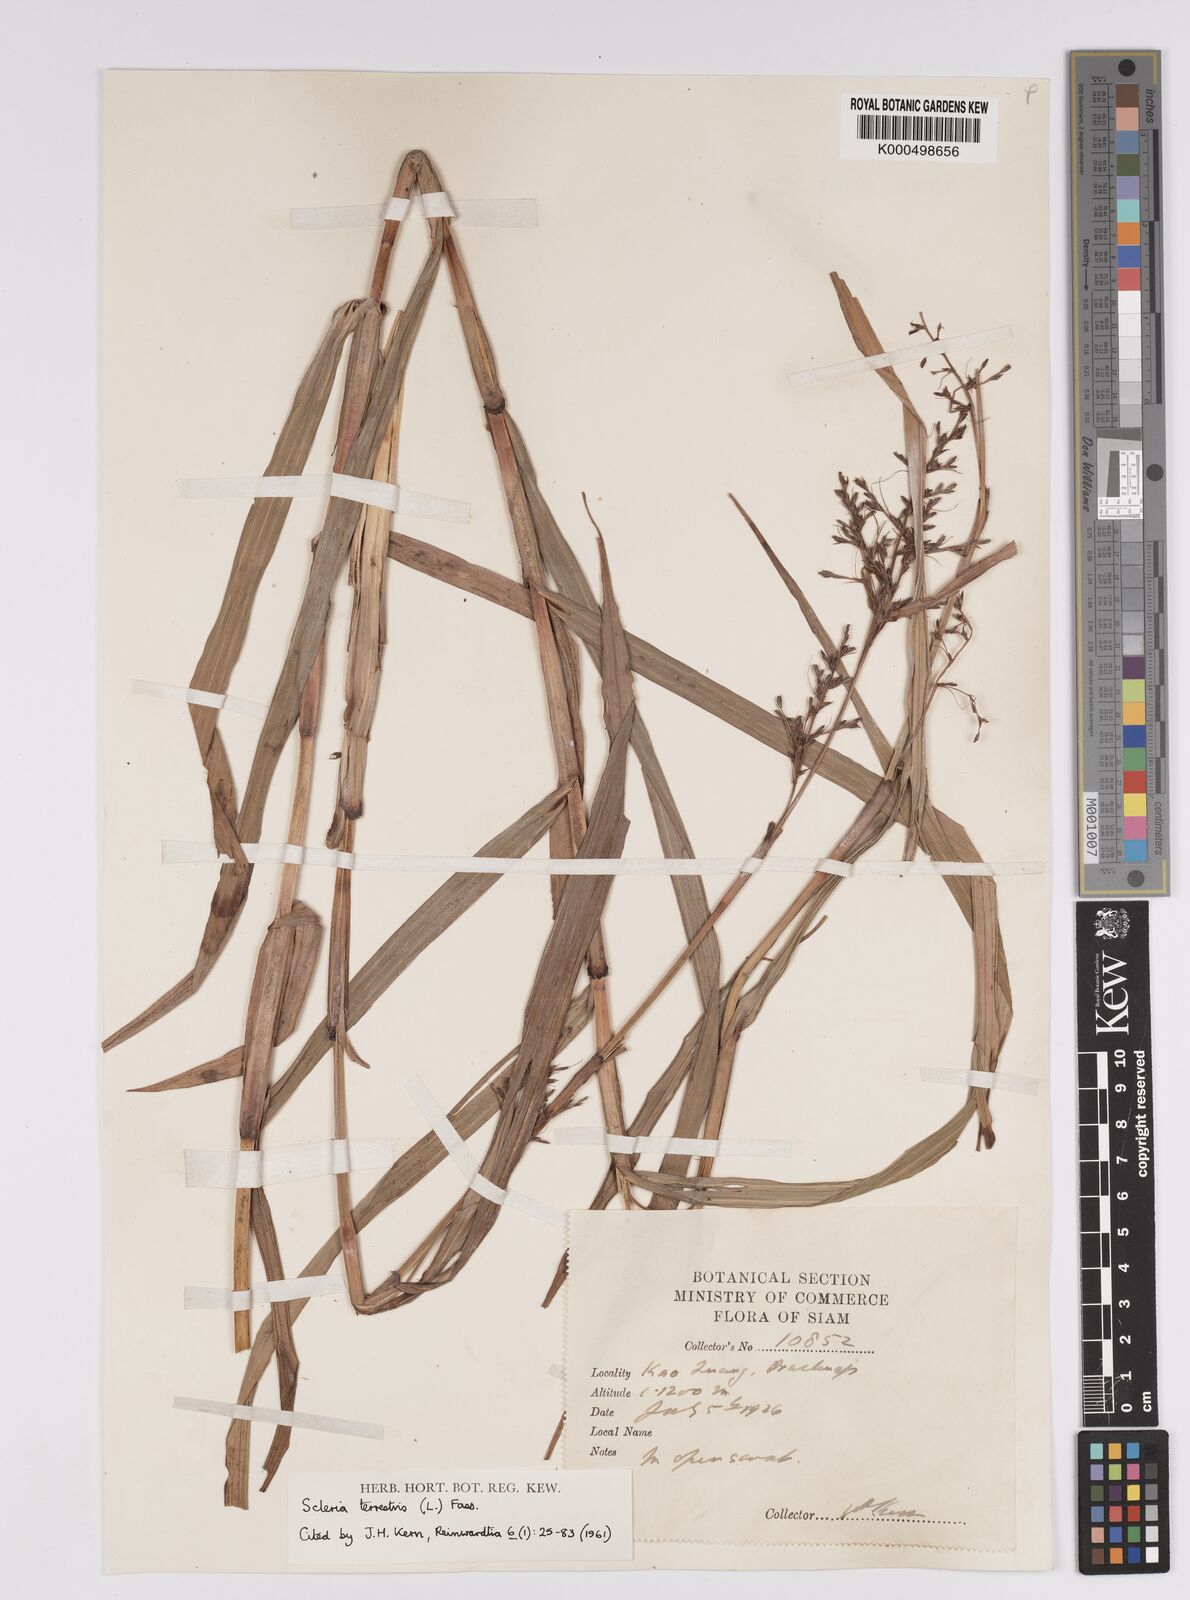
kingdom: Plantae
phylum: Tracheophyta
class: Liliopsida
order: Poales
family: Cyperaceae
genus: Scleria
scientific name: Scleria terrestris
